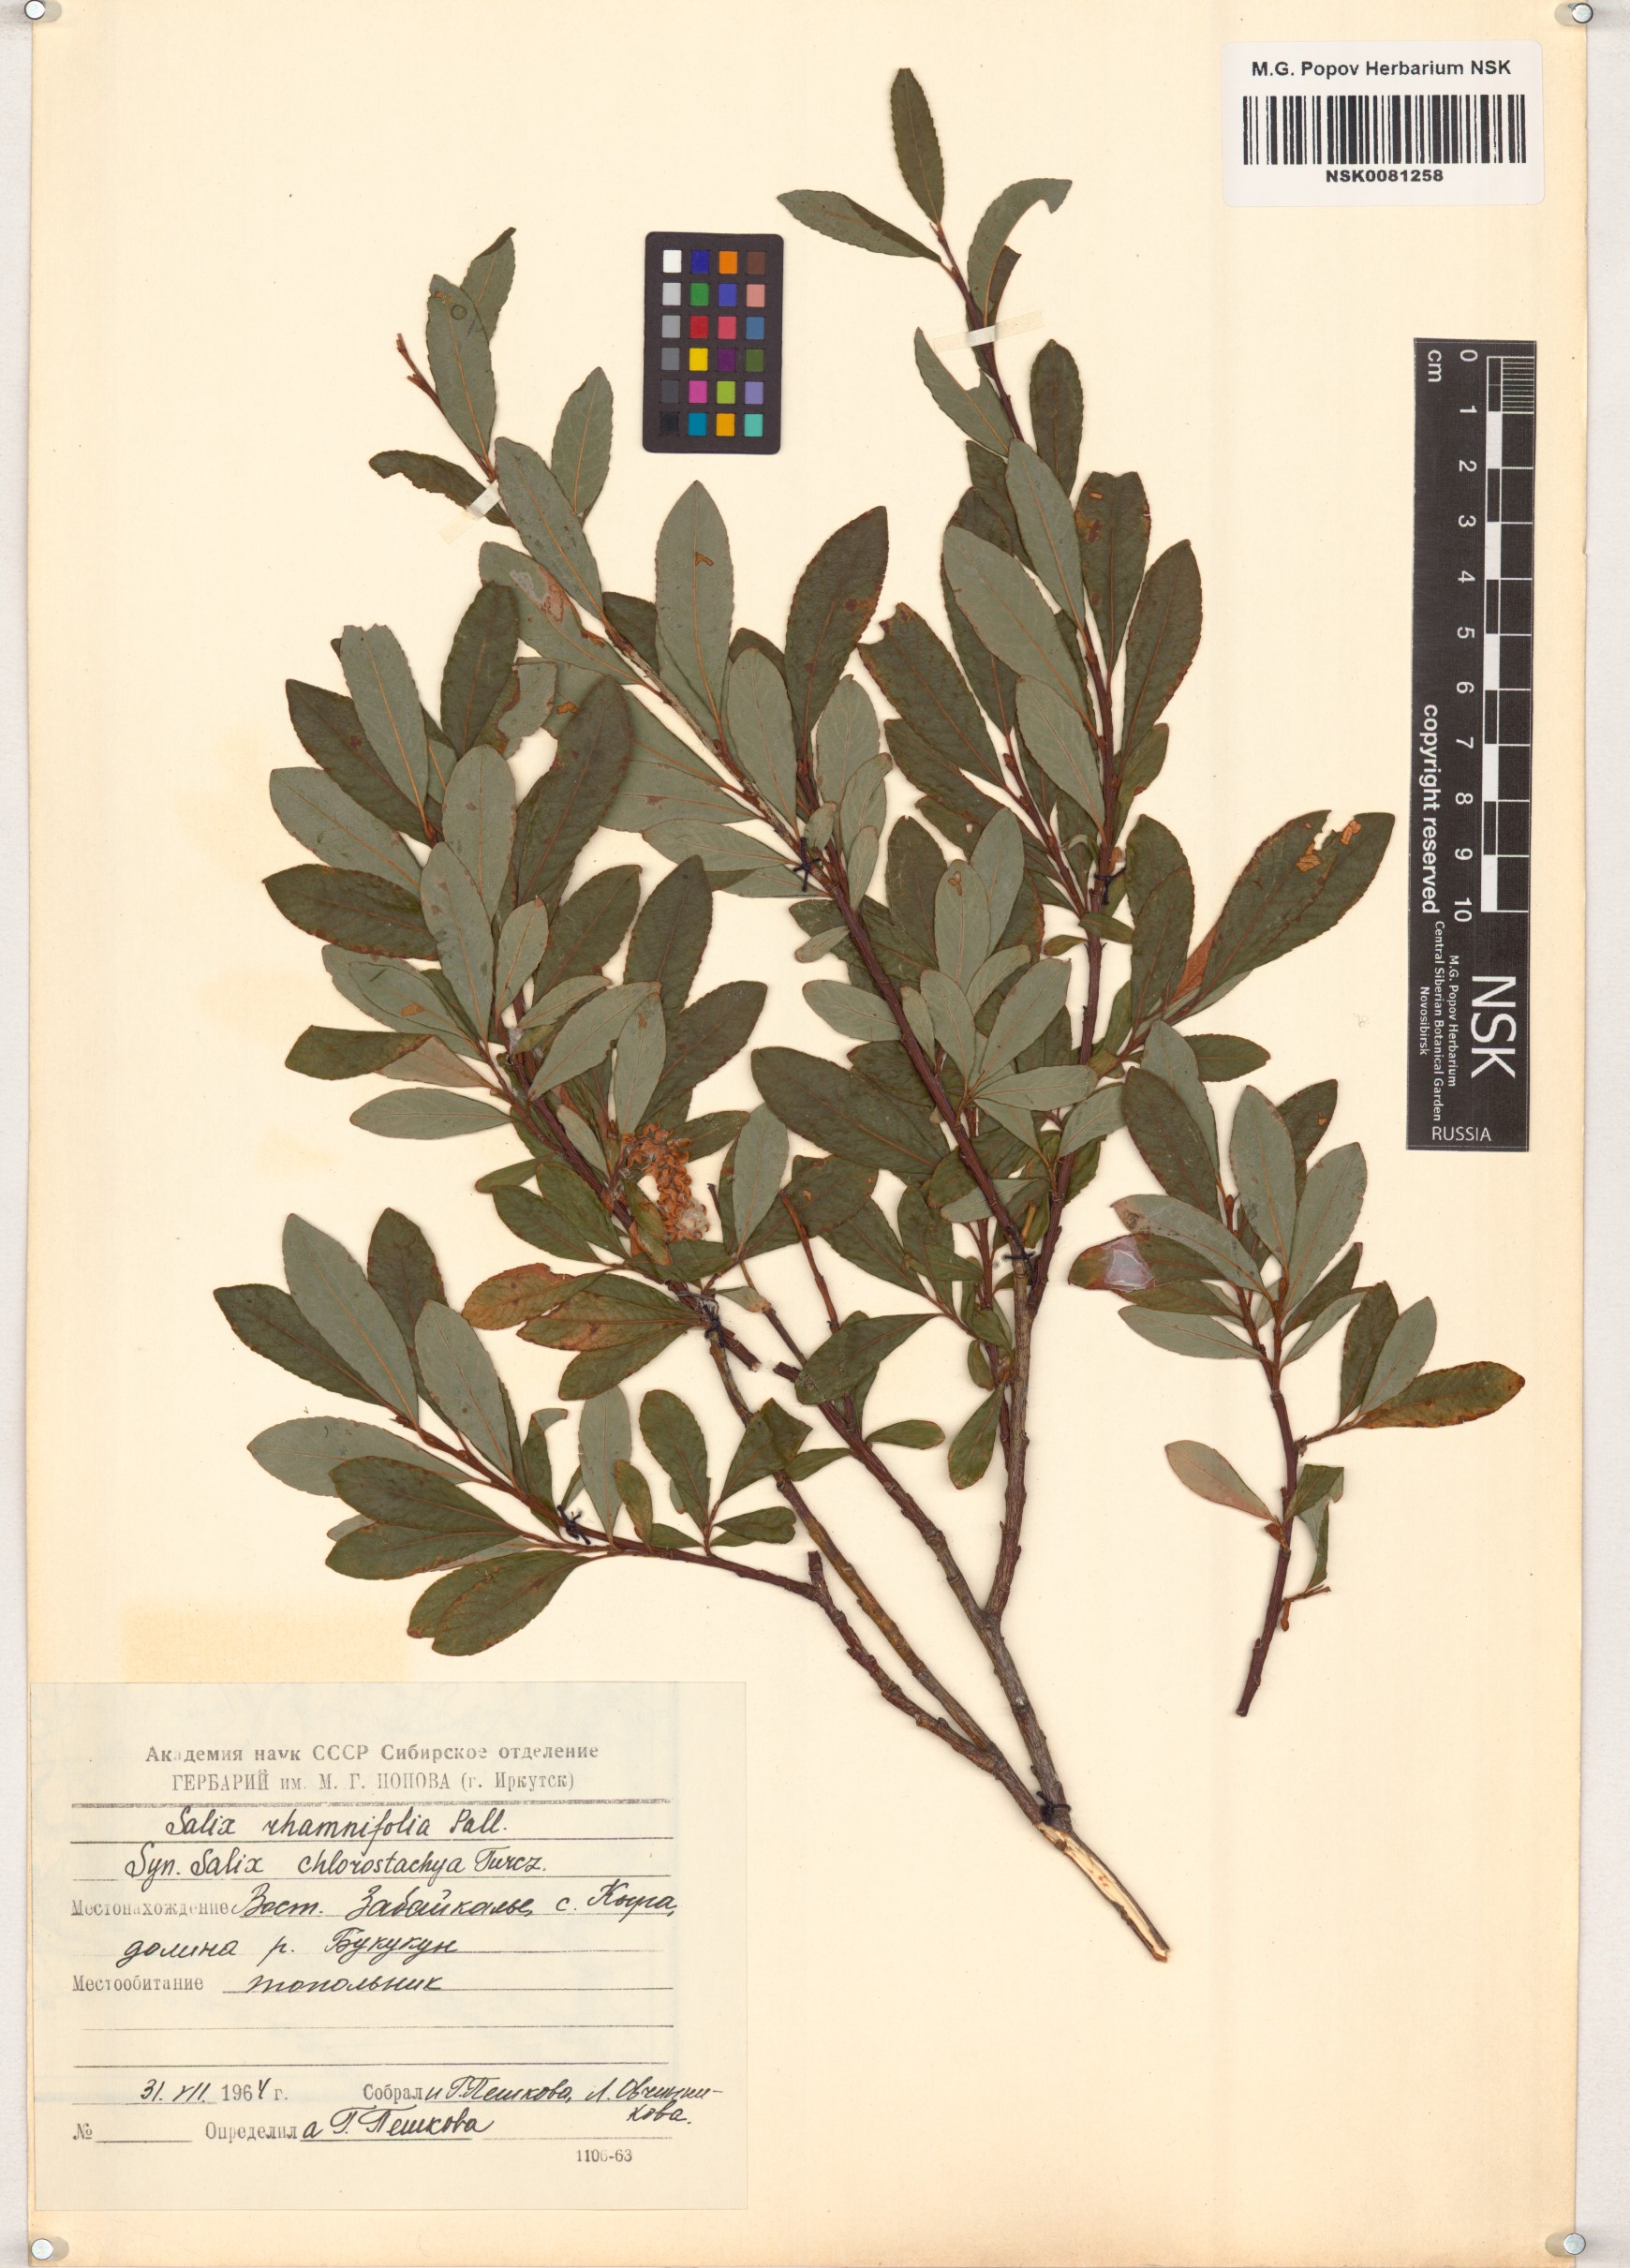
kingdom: Plantae
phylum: Tracheophyta
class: Magnoliopsida
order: Malpighiales
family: Salicaceae
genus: Salix
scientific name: Salix rhamnifolia
